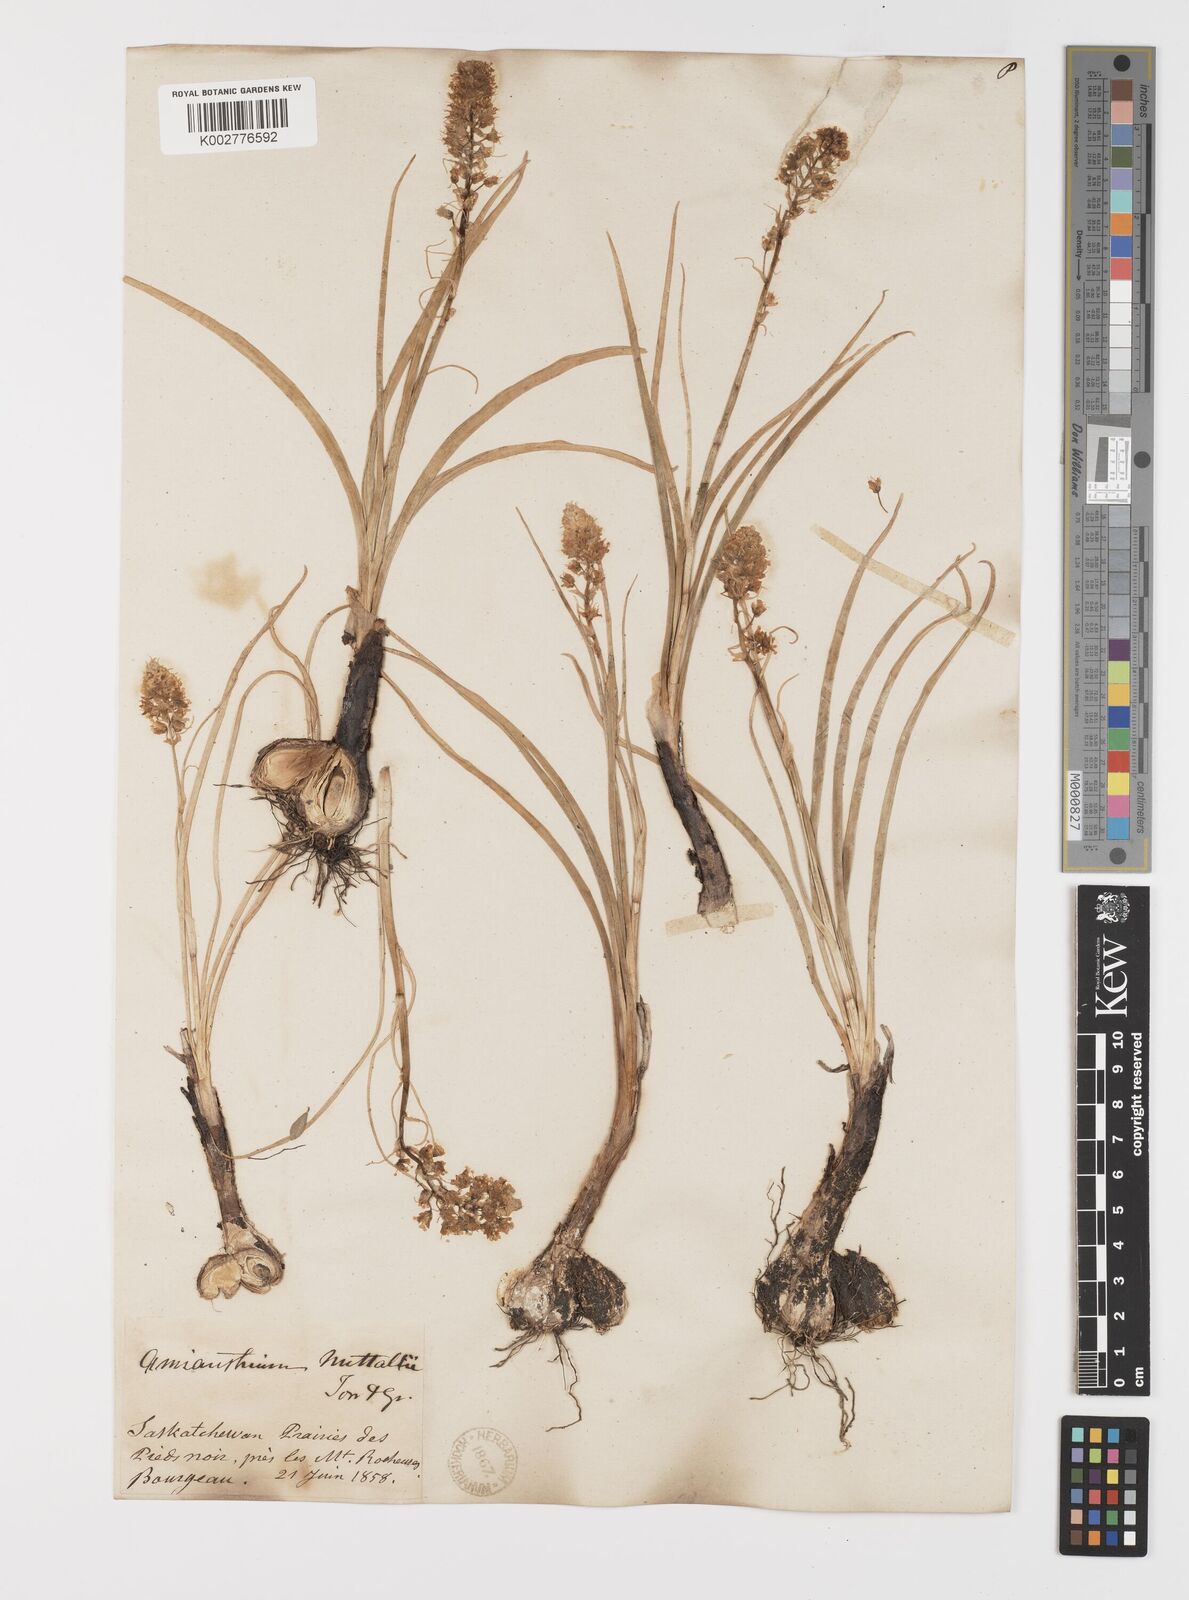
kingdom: Plantae
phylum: Tracheophyta
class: Liliopsida
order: Liliales
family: Melanthiaceae
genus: Toxicoscordion
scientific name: Toxicoscordion nuttallii
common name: Poison sego
